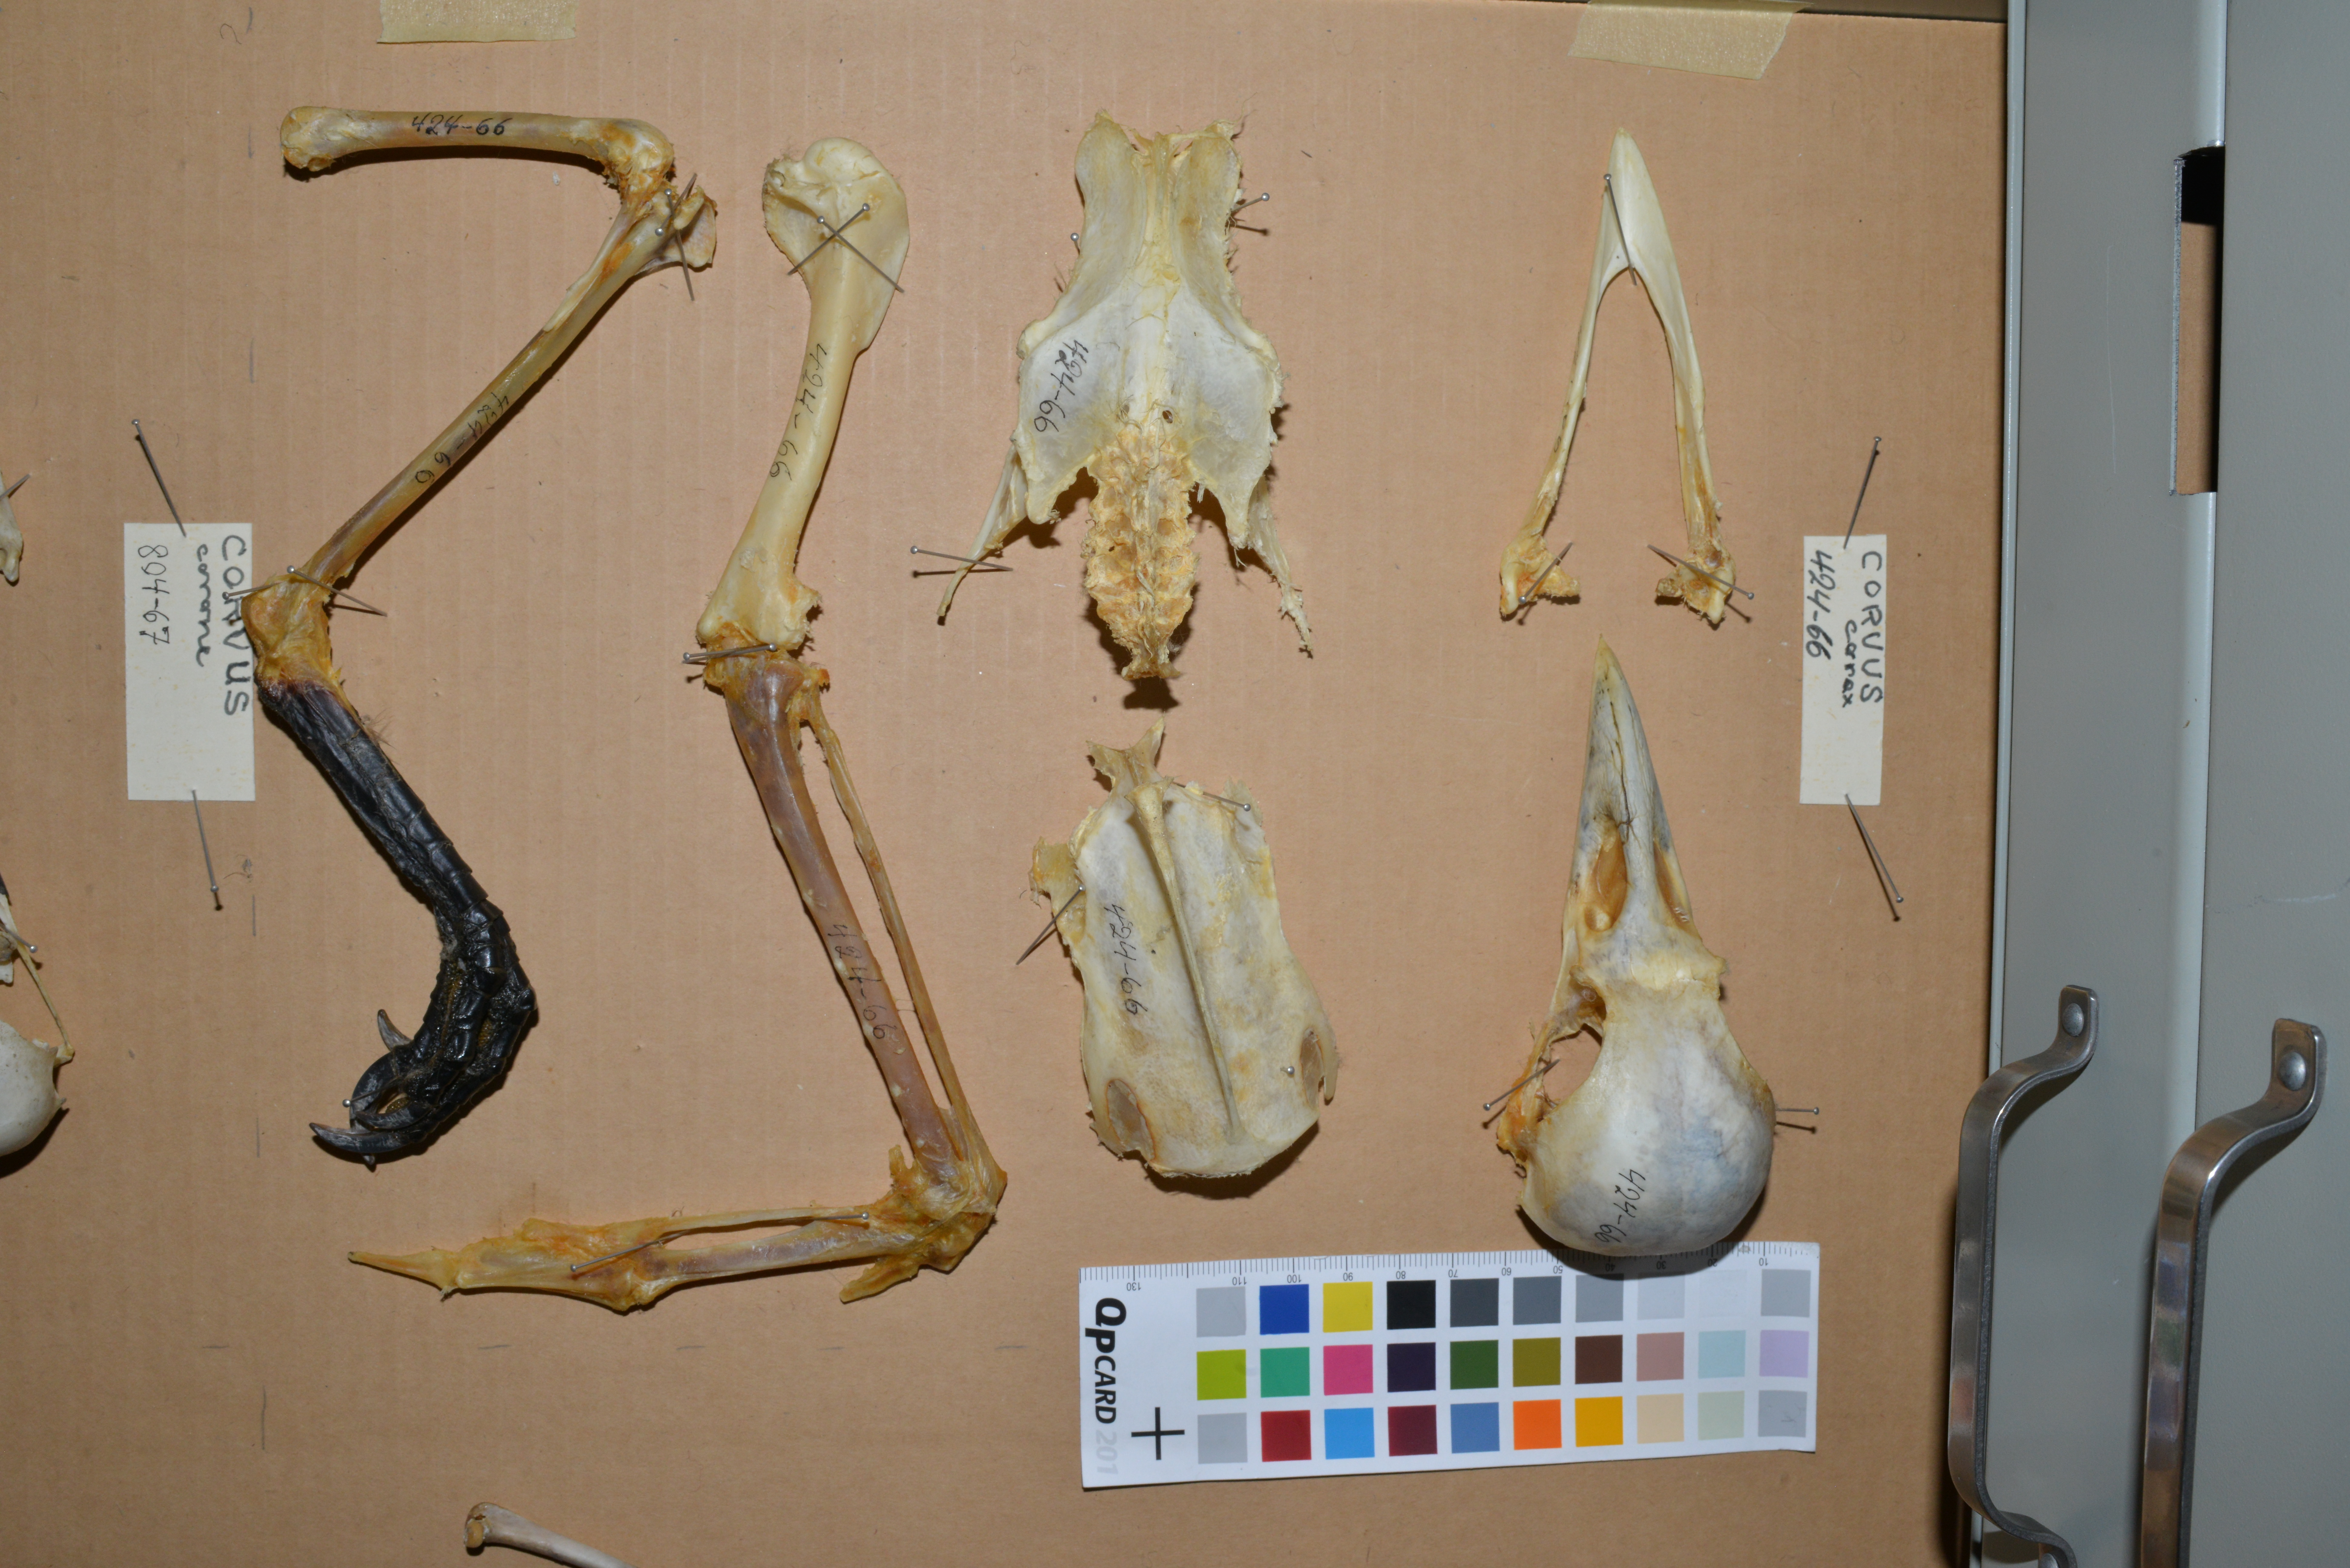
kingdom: Animalia
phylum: Chordata
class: Aves
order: Passeriformes
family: Corvidae
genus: Corvus
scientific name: Corvus corax
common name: Common raven
